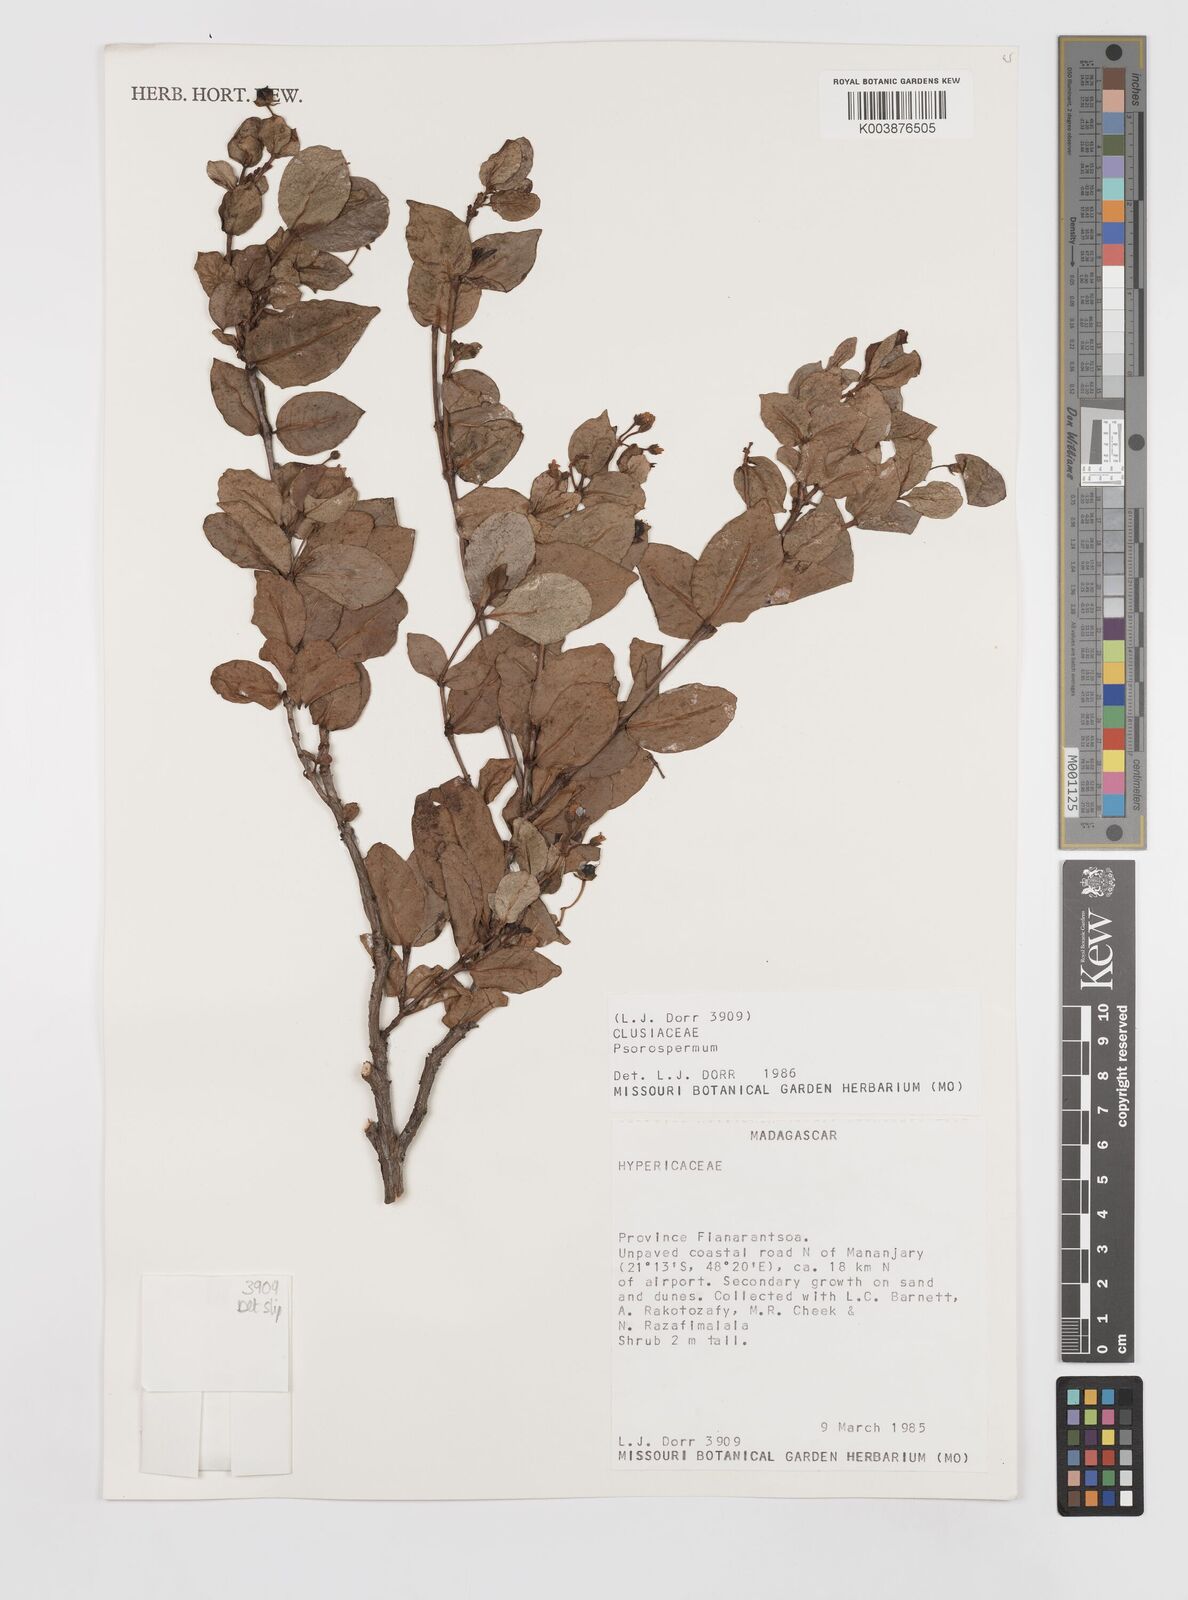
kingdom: Plantae
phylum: Tracheophyta
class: Magnoliopsida
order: Malpighiales
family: Hypericaceae
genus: Psorospermum
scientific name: Psorospermum
